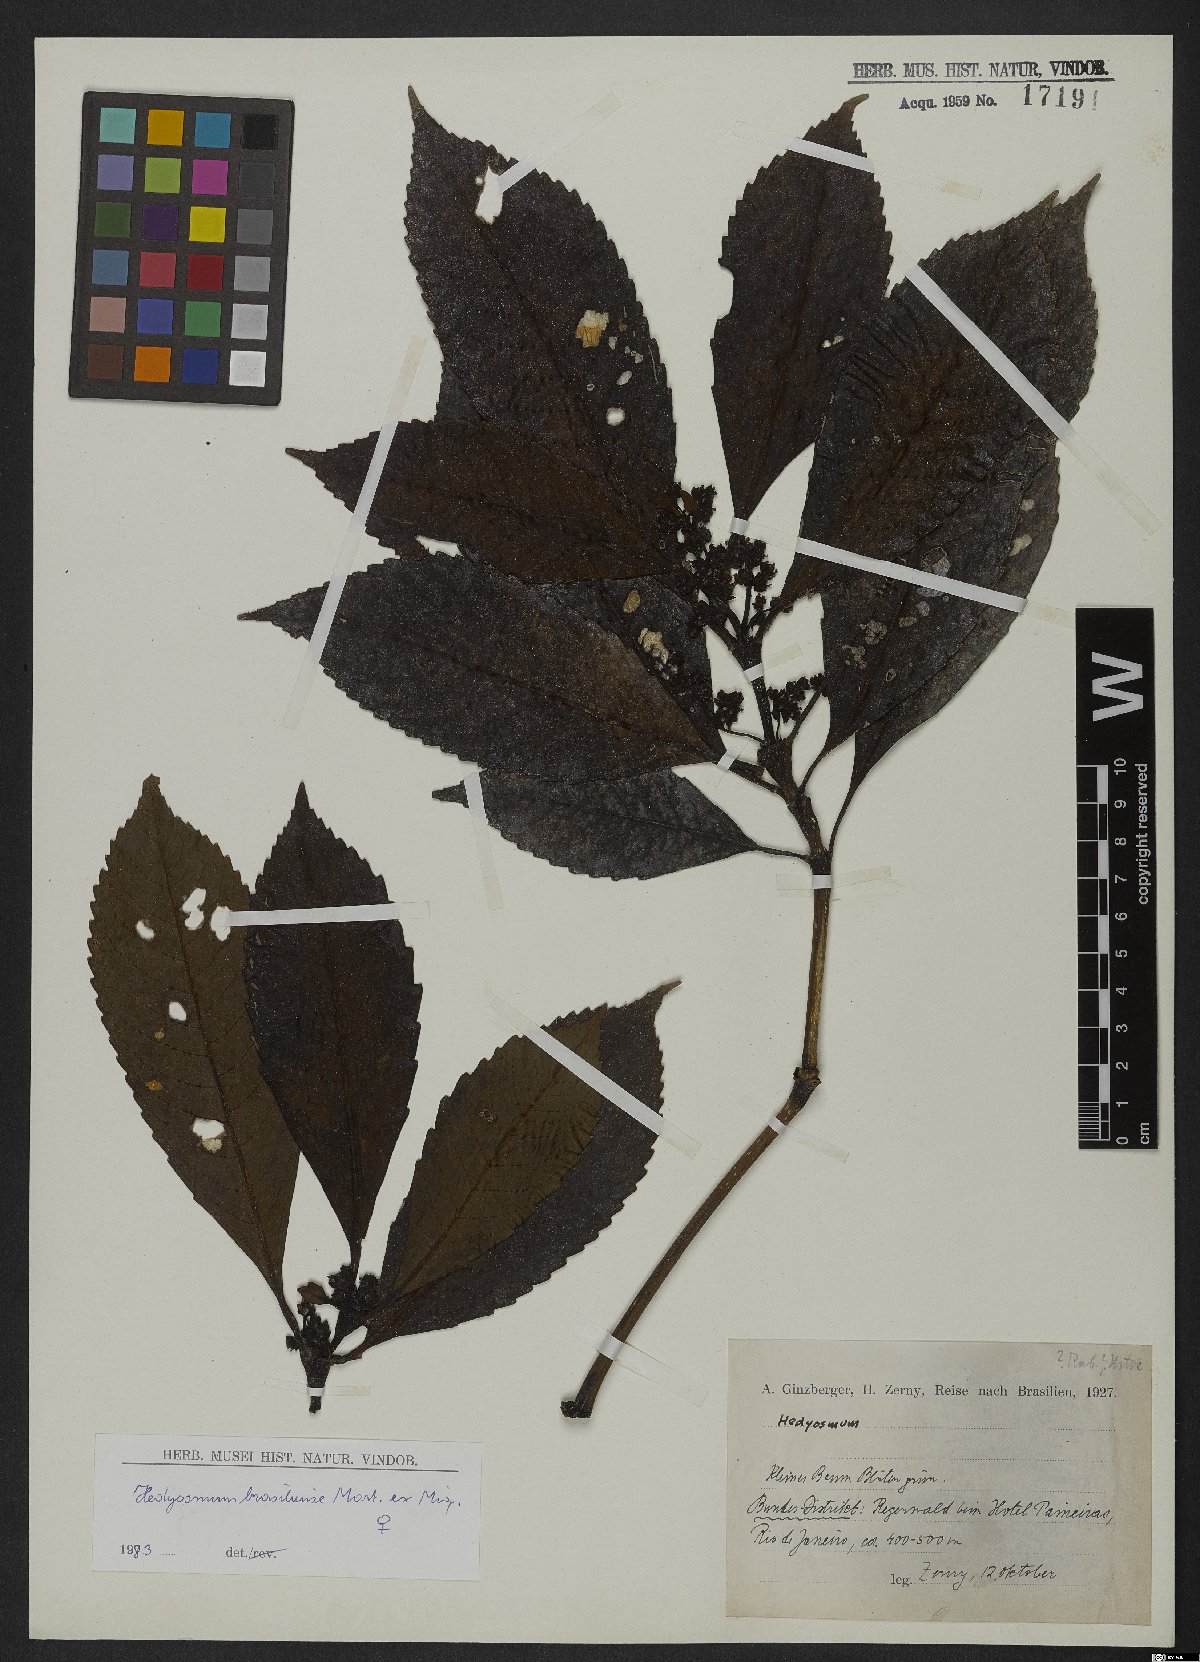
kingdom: Plantae
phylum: Tracheophyta
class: Magnoliopsida
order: Chloranthales
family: Chloranthaceae
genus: Hedyosmum
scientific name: Hedyosmum brasiliense
